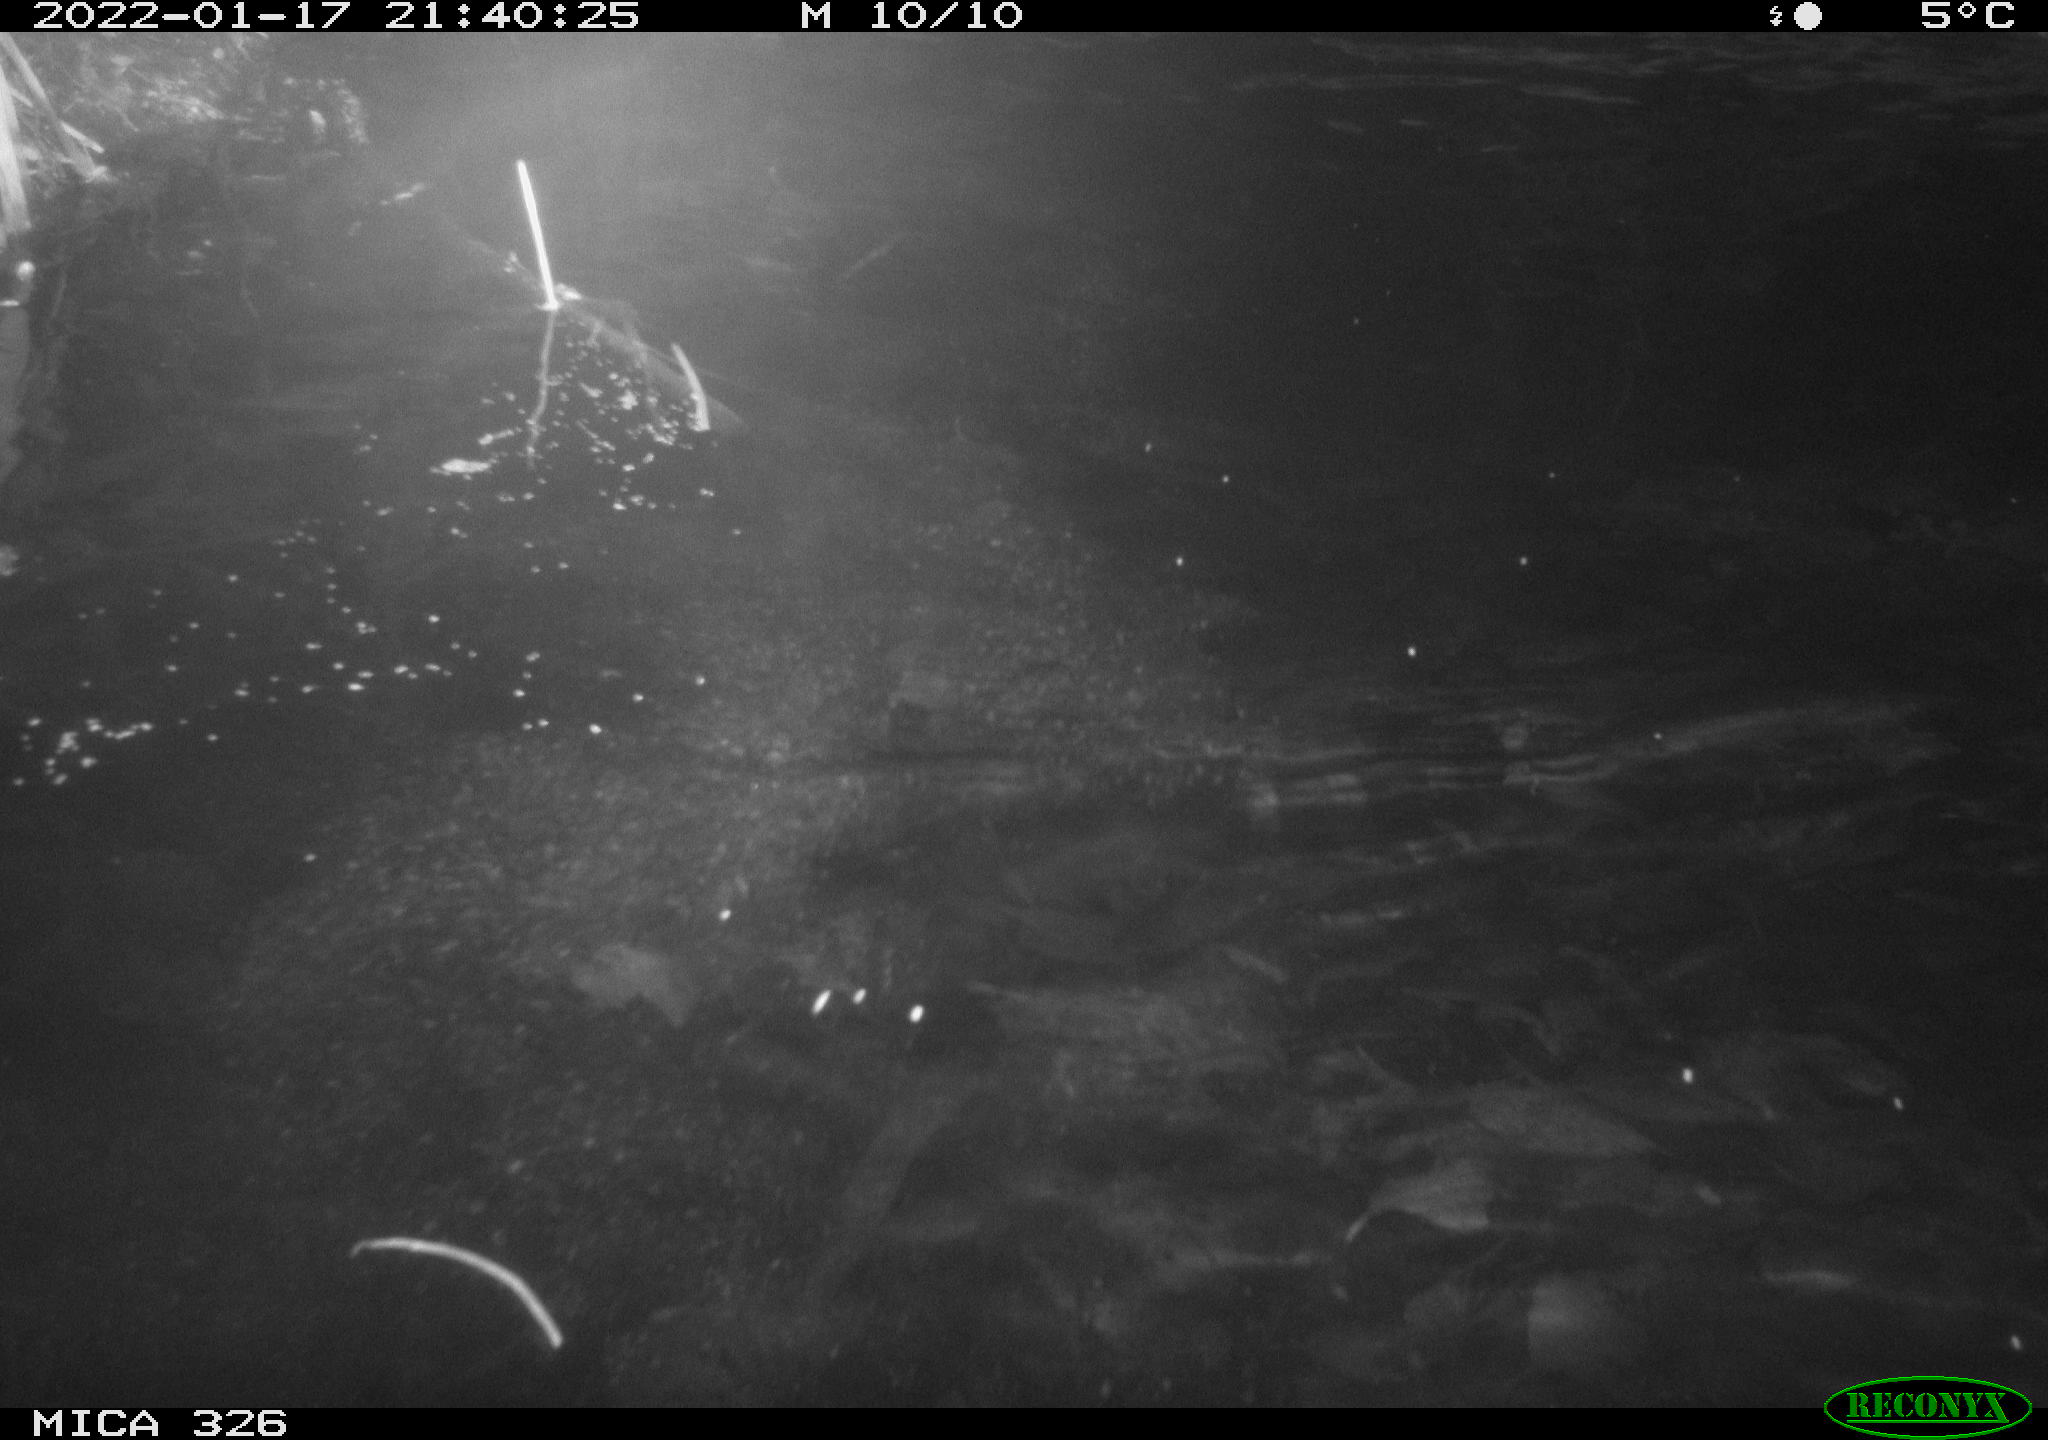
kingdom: Animalia
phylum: Chordata
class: Mammalia
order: Rodentia
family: Cricetidae
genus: Ondatra
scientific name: Ondatra zibethicus
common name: Muskrat
